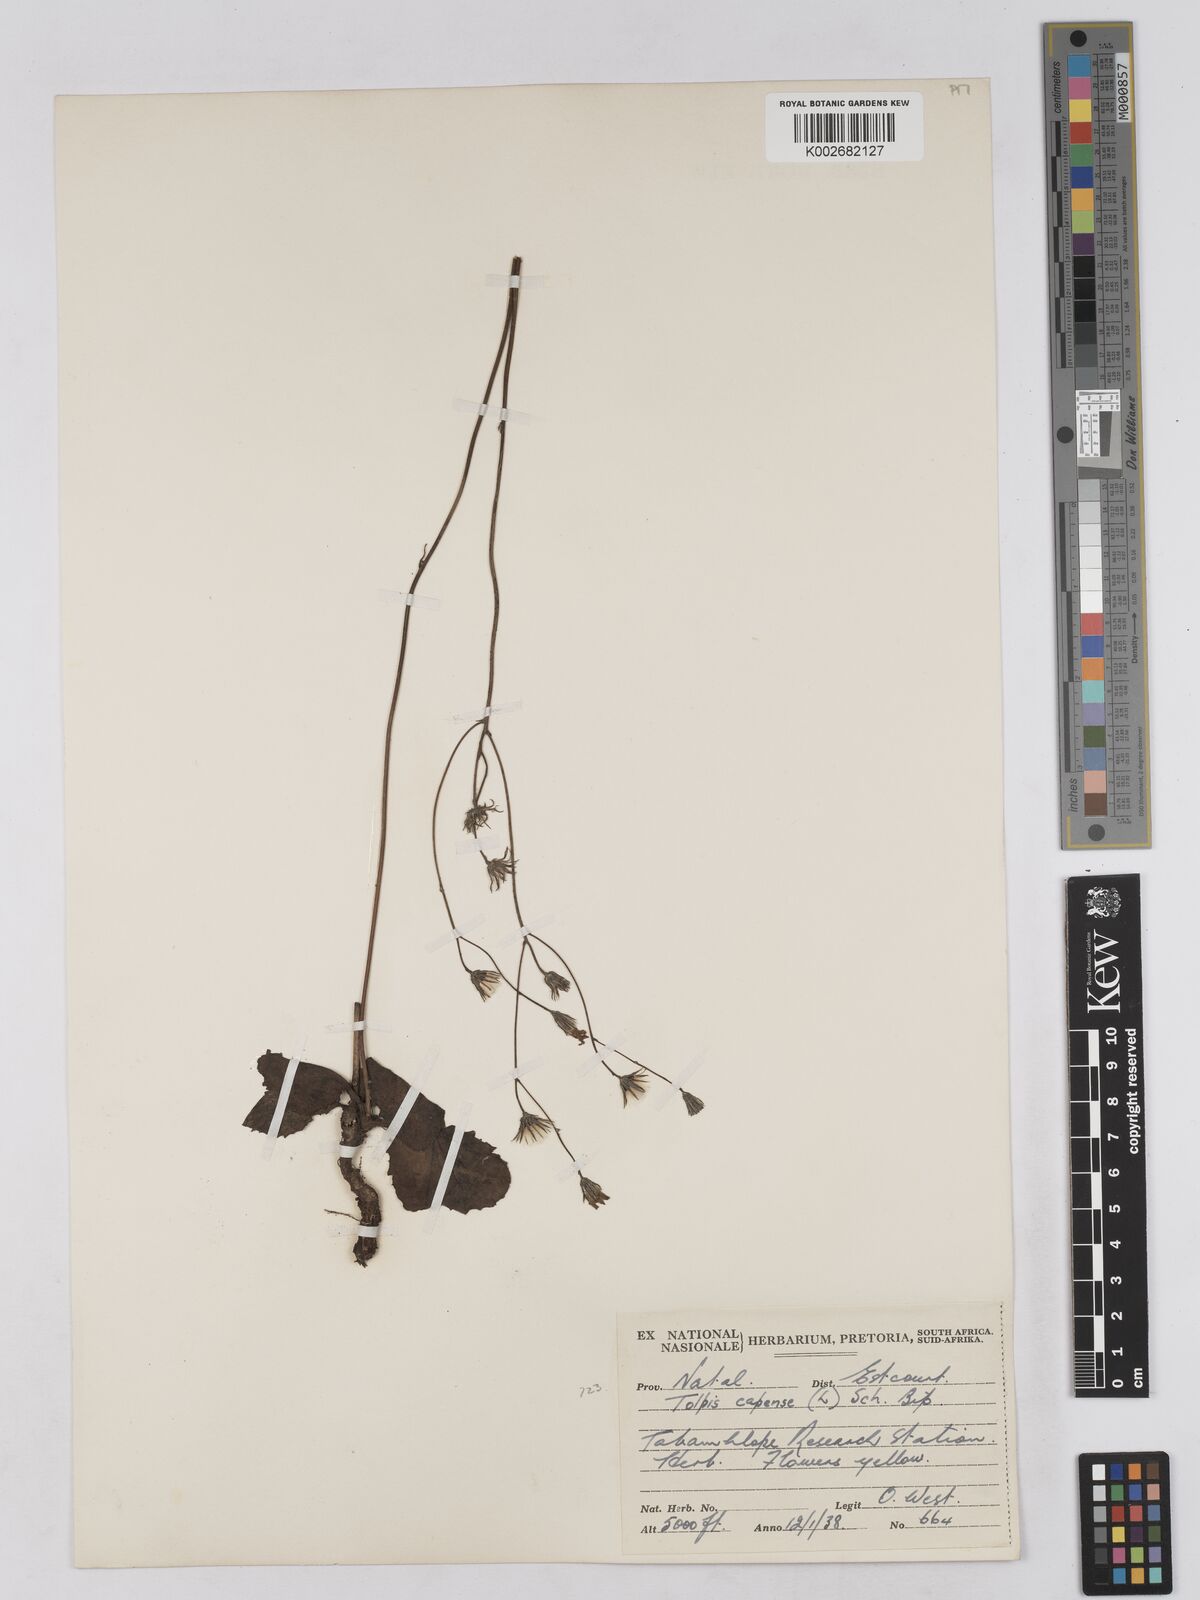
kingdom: Plantae
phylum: Tracheophyta
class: Magnoliopsida
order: Asterales
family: Asteraceae
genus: Tolpis
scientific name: Tolpis capensis
